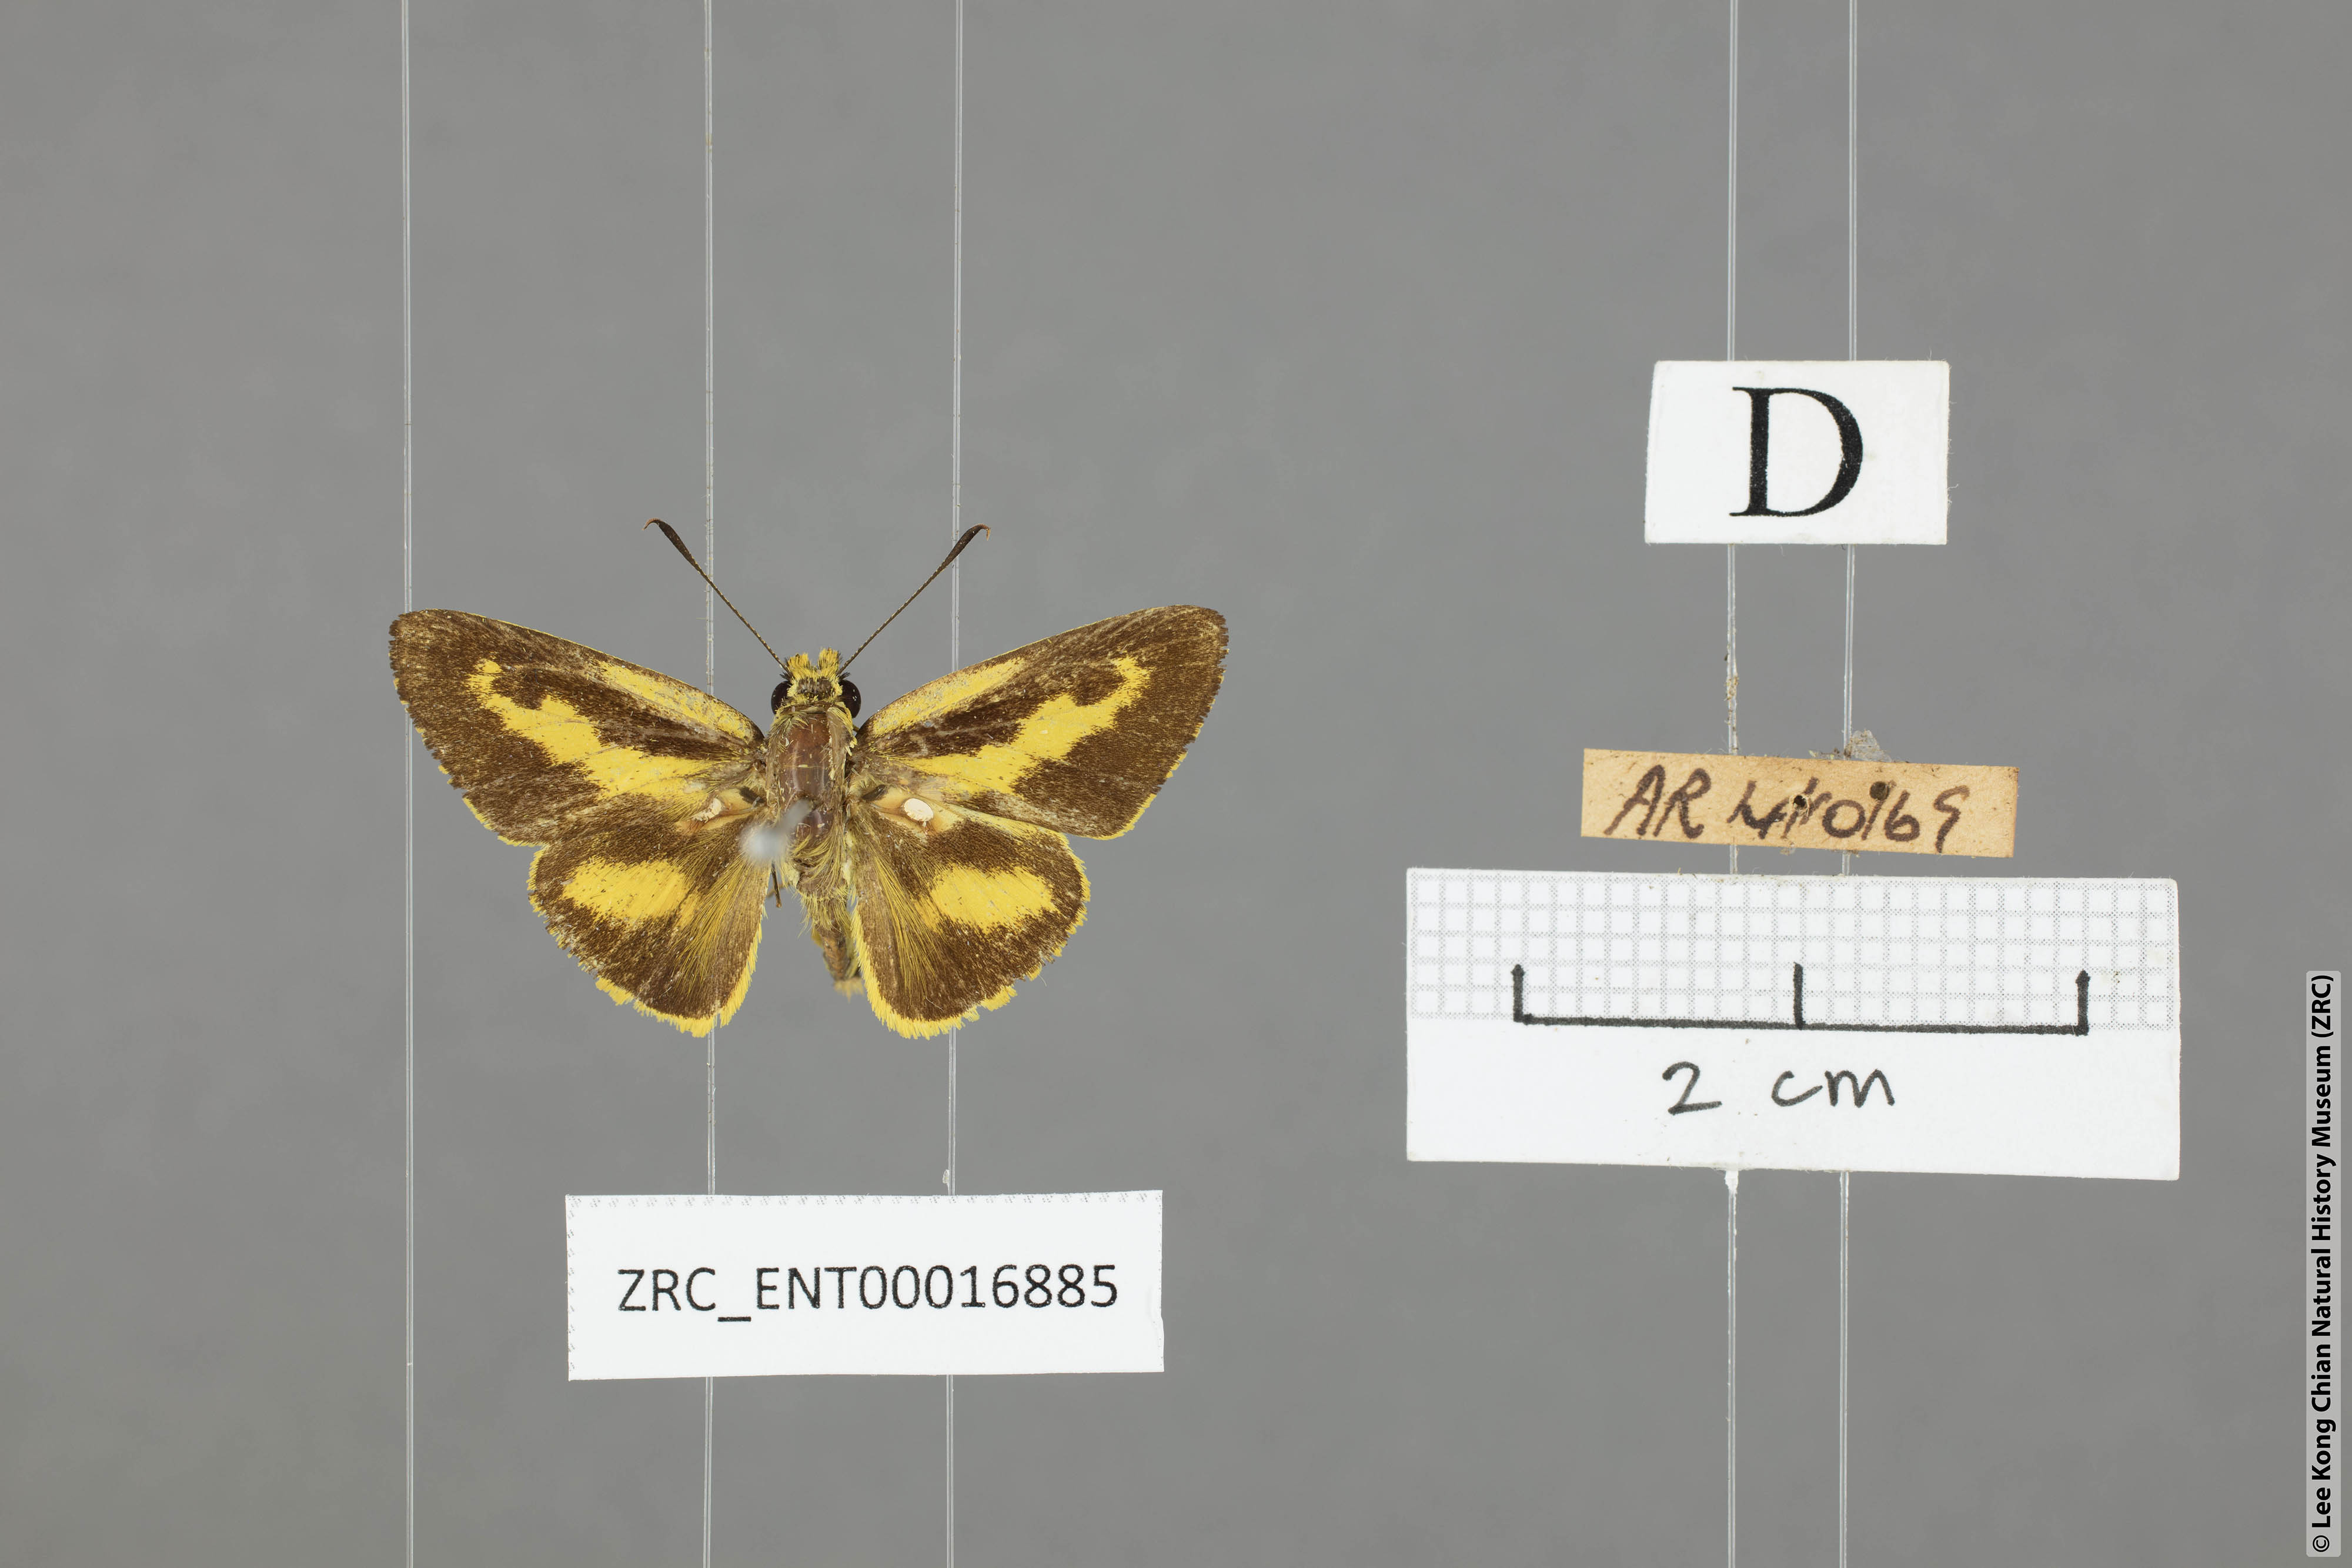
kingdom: Animalia
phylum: Arthropoda
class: Insecta
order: Lepidoptera
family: Hesperiidae
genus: Cupitha
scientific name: Cupitha purreea
